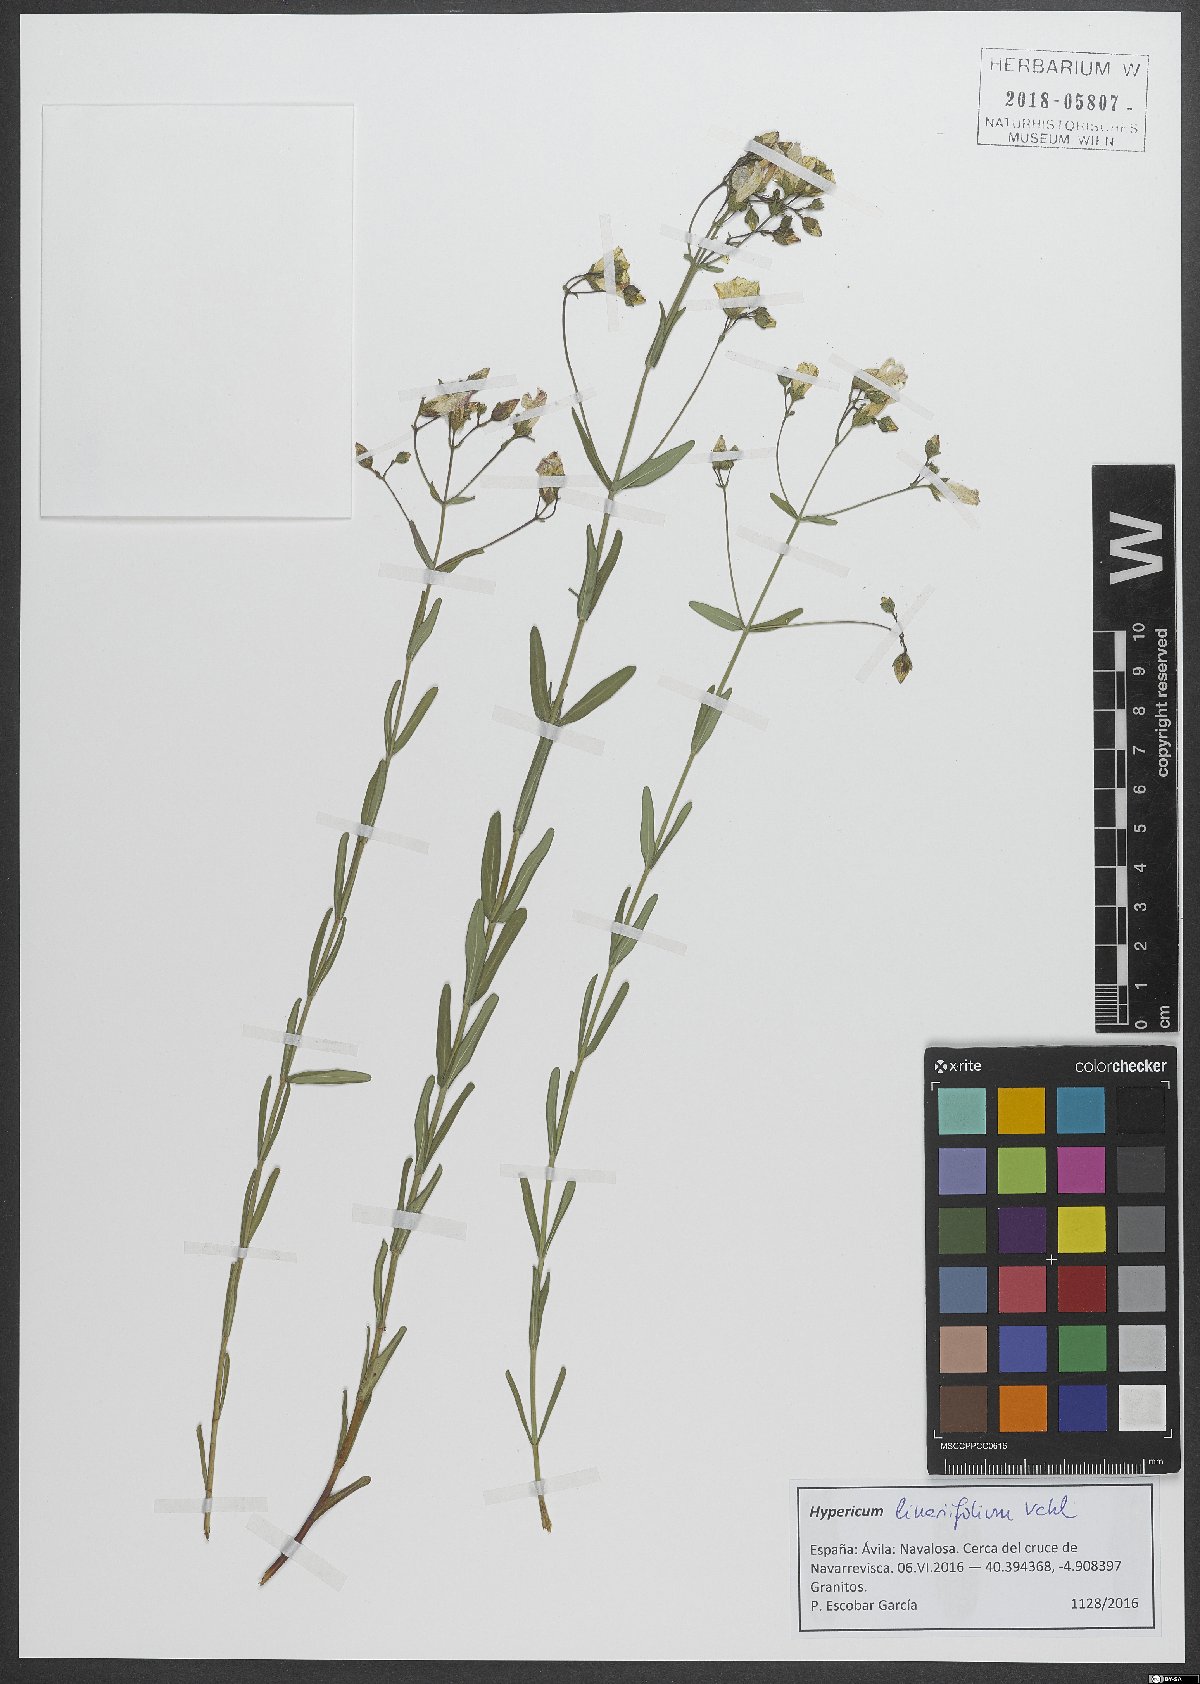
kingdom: Plantae
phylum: Tracheophyta
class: Magnoliopsida
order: Malpighiales
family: Hypericaceae
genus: Hypericum
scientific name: Hypericum linariifolium
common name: Toadflax-leaved st. john's-wort
